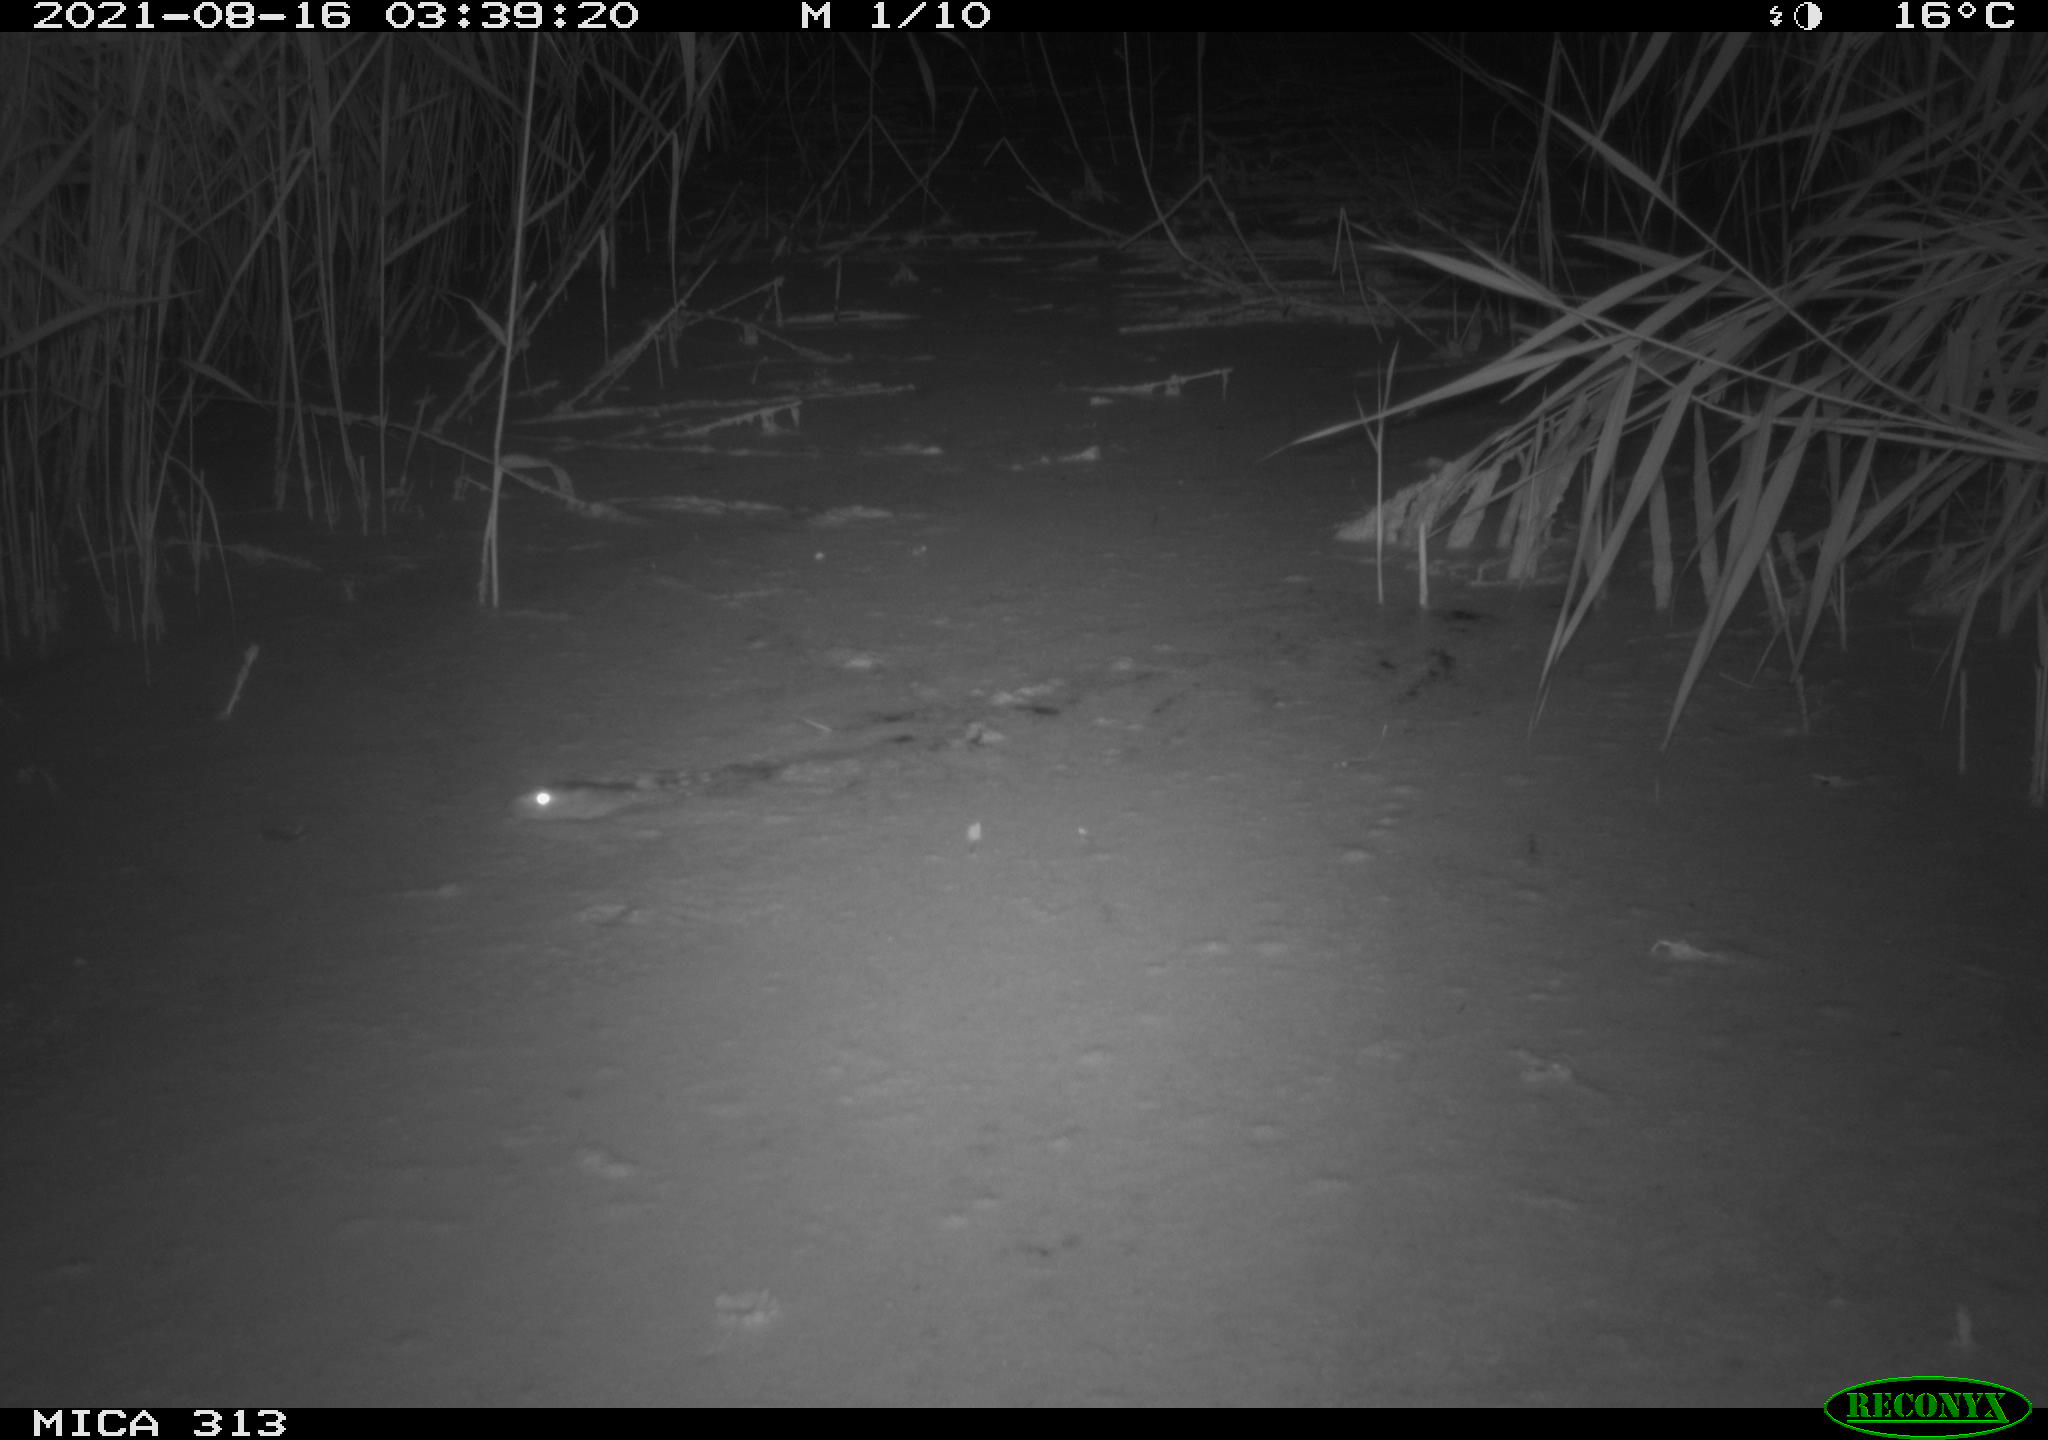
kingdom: Animalia
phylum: Chordata
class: Mammalia
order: Rodentia
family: Muridae
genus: Rattus
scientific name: Rattus norvegicus
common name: Brown rat
